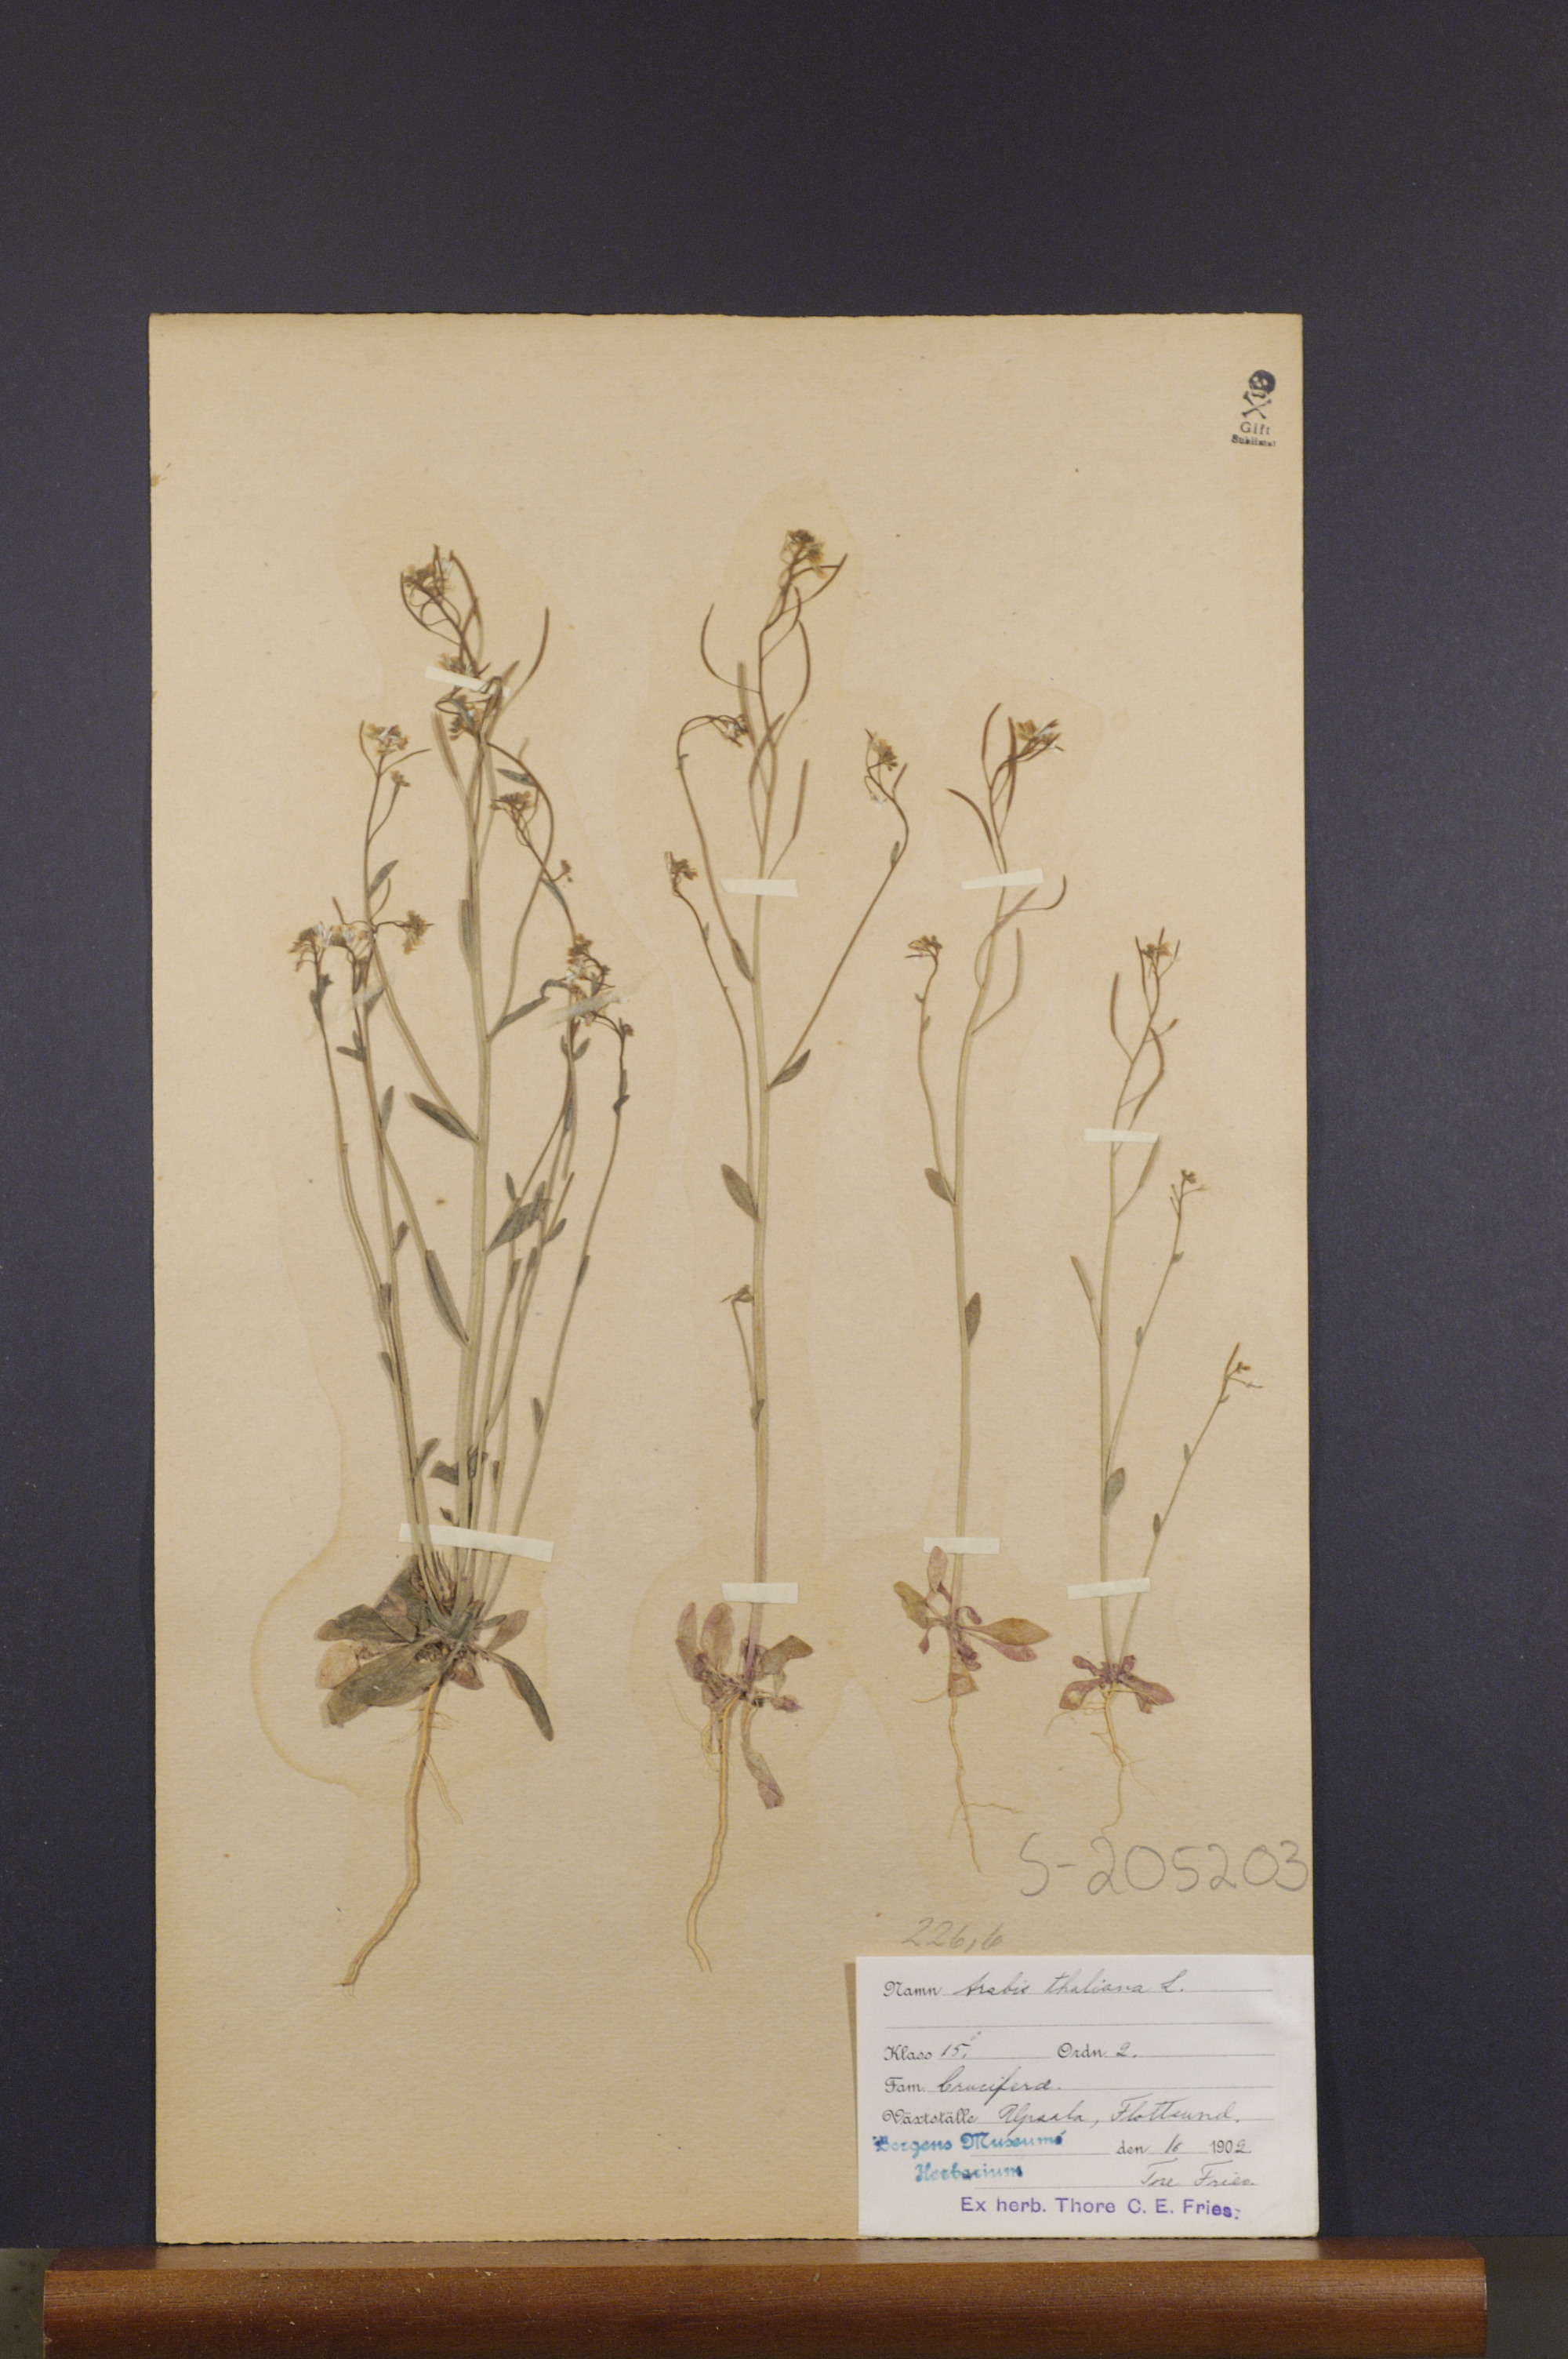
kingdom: Plantae
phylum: Tracheophyta
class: Magnoliopsida
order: Brassicales
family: Brassicaceae
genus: Arabidopsis
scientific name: Arabidopsis thaliana
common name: Thale cress
